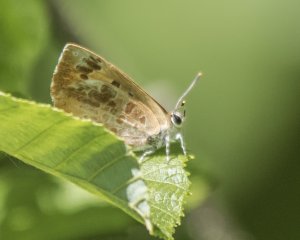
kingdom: Animalia
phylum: Arthropoda
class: Insecta
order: Lepidoptera
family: Lycaenidae
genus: Feniseca
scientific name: Feniseca tarquinius
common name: Harvester
